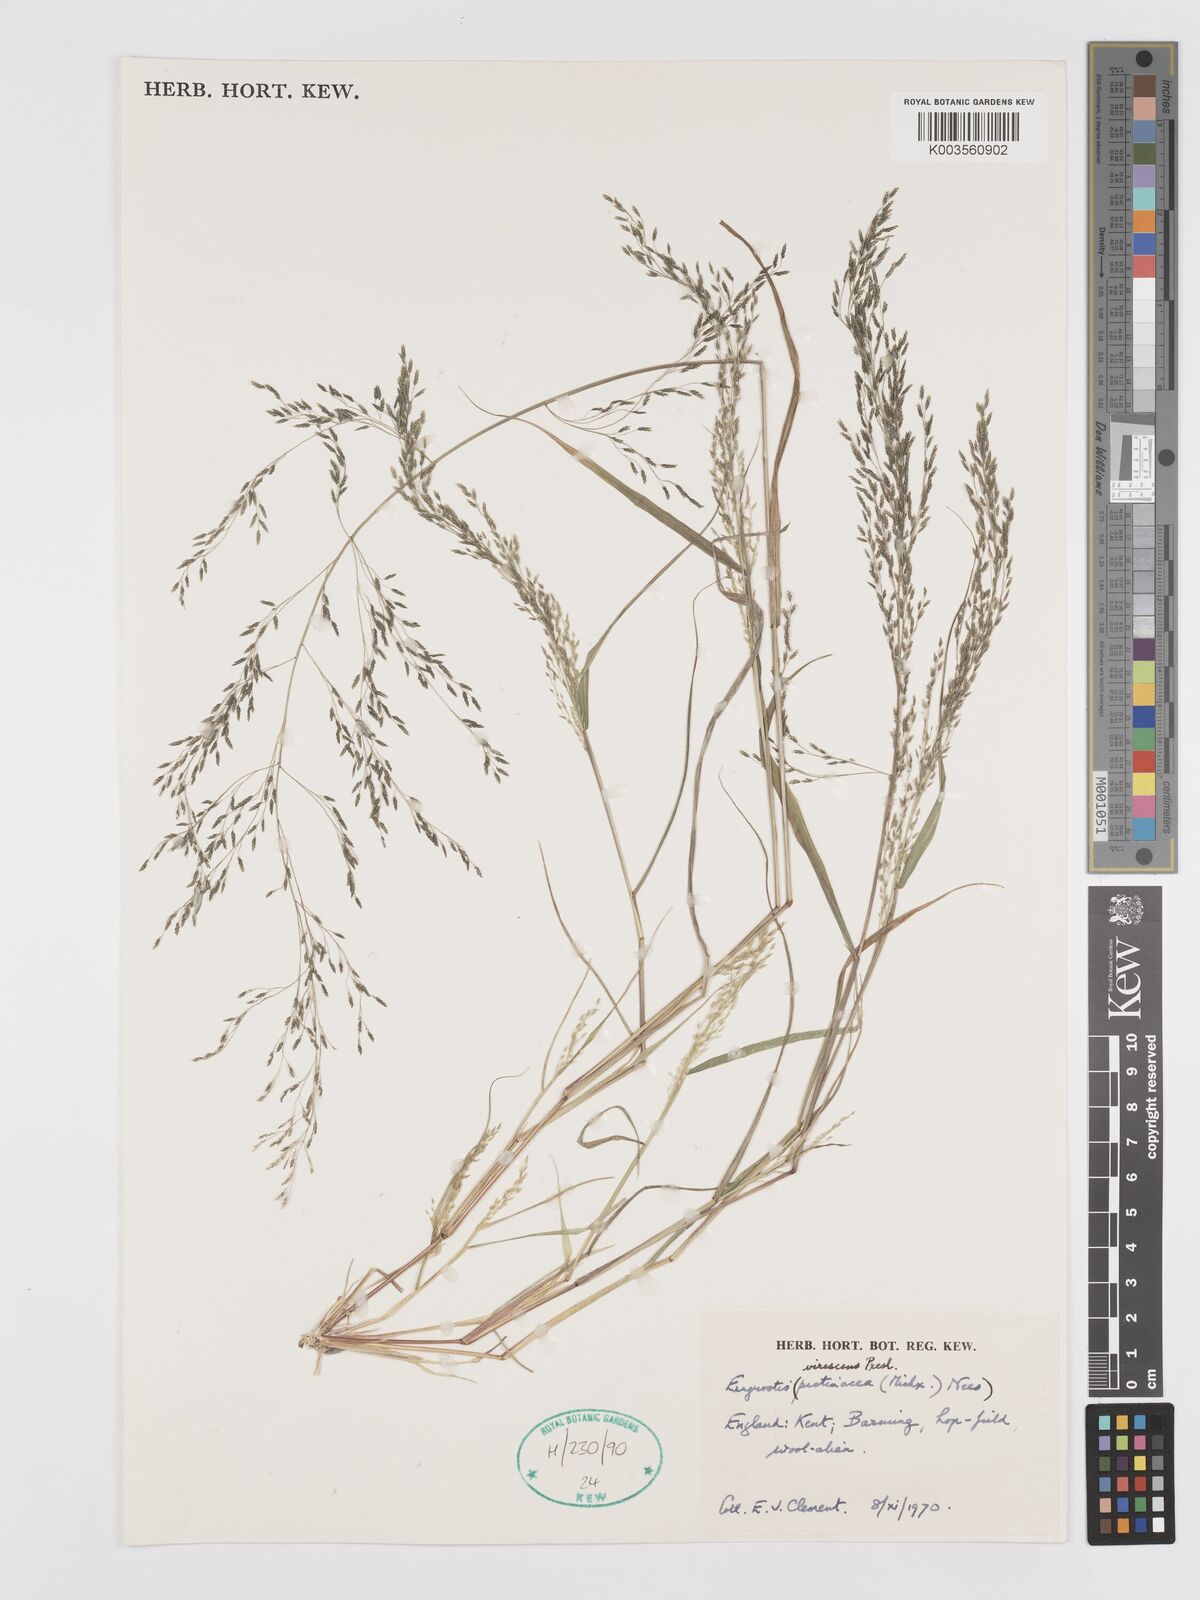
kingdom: Plantae
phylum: Tracheophyta
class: Liliopsida
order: Poales
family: Poaceae
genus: Eragrostis
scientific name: Eragrostis mexicana
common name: Mexican love grass
